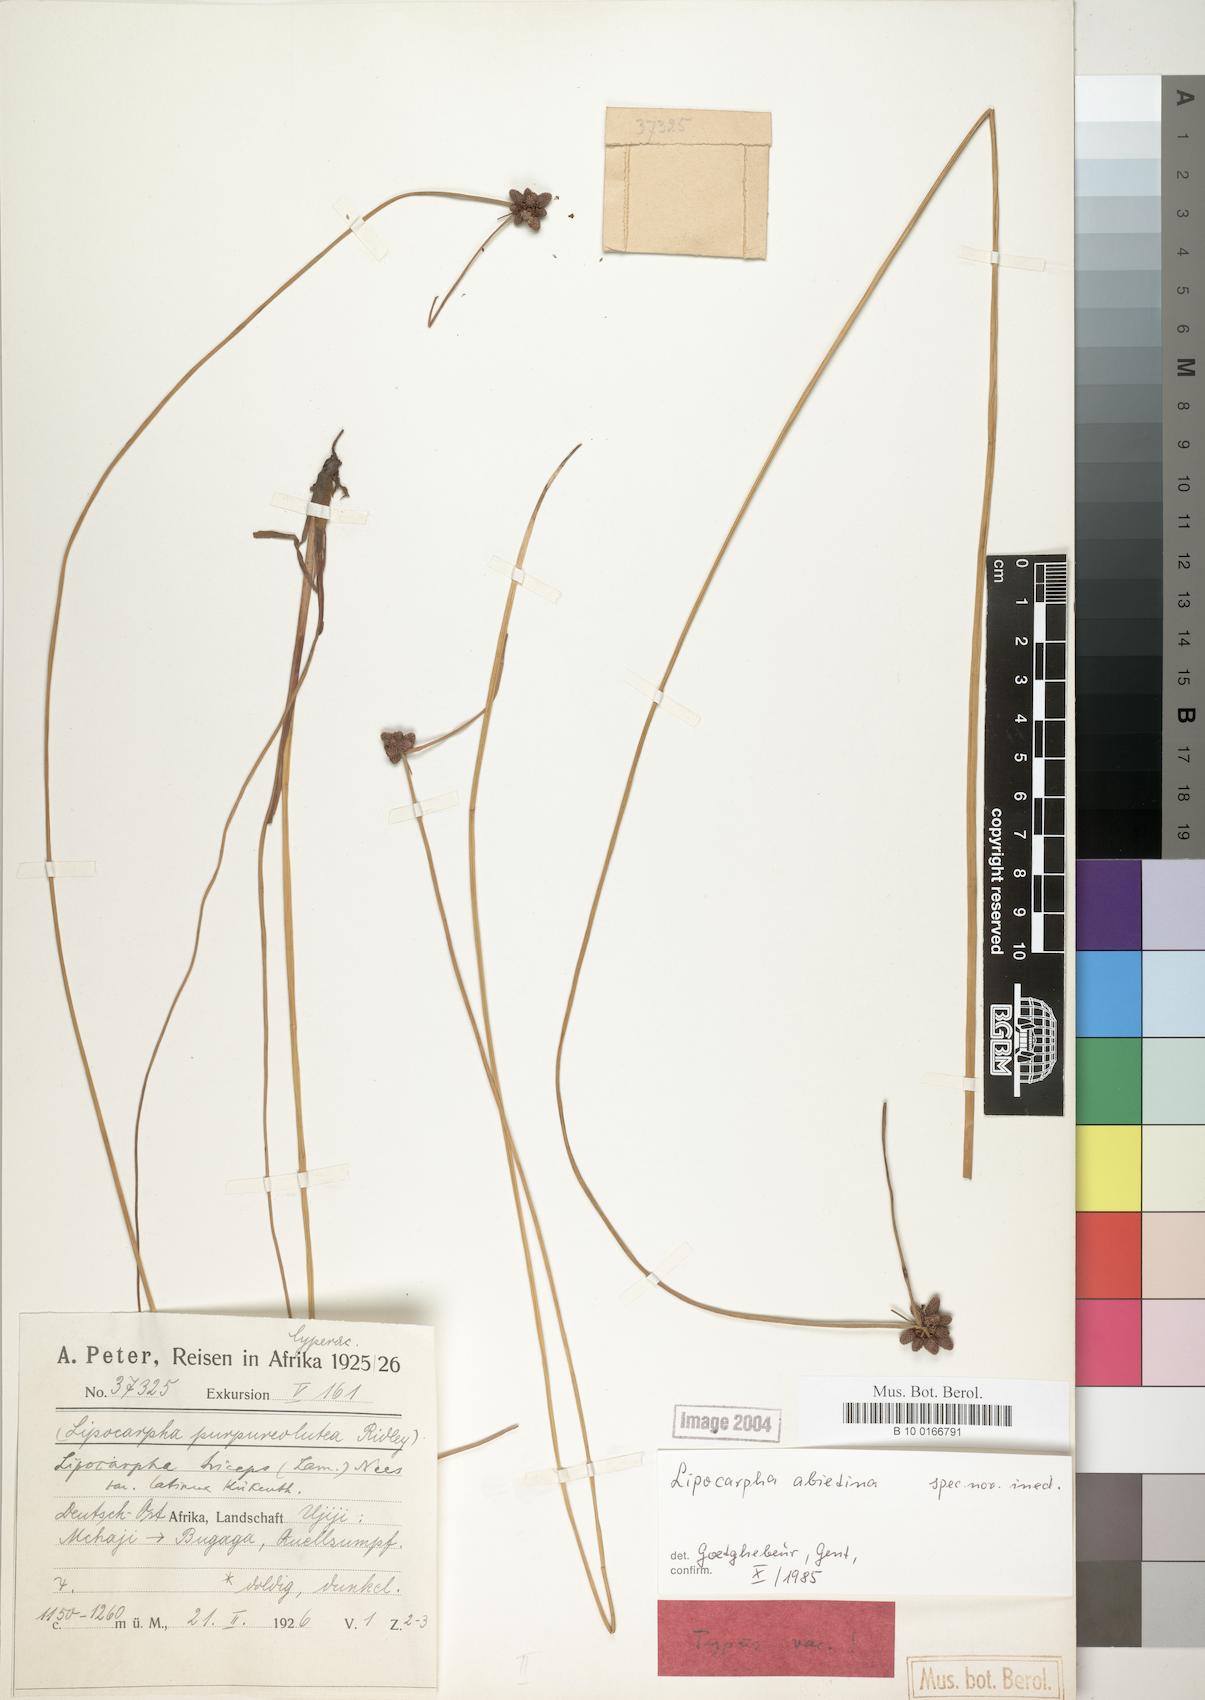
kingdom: Plantae
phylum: Tracheophyta
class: Liliopsida
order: Poales
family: Cyperaceae
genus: Cyperus
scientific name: Cyperus abietinus
